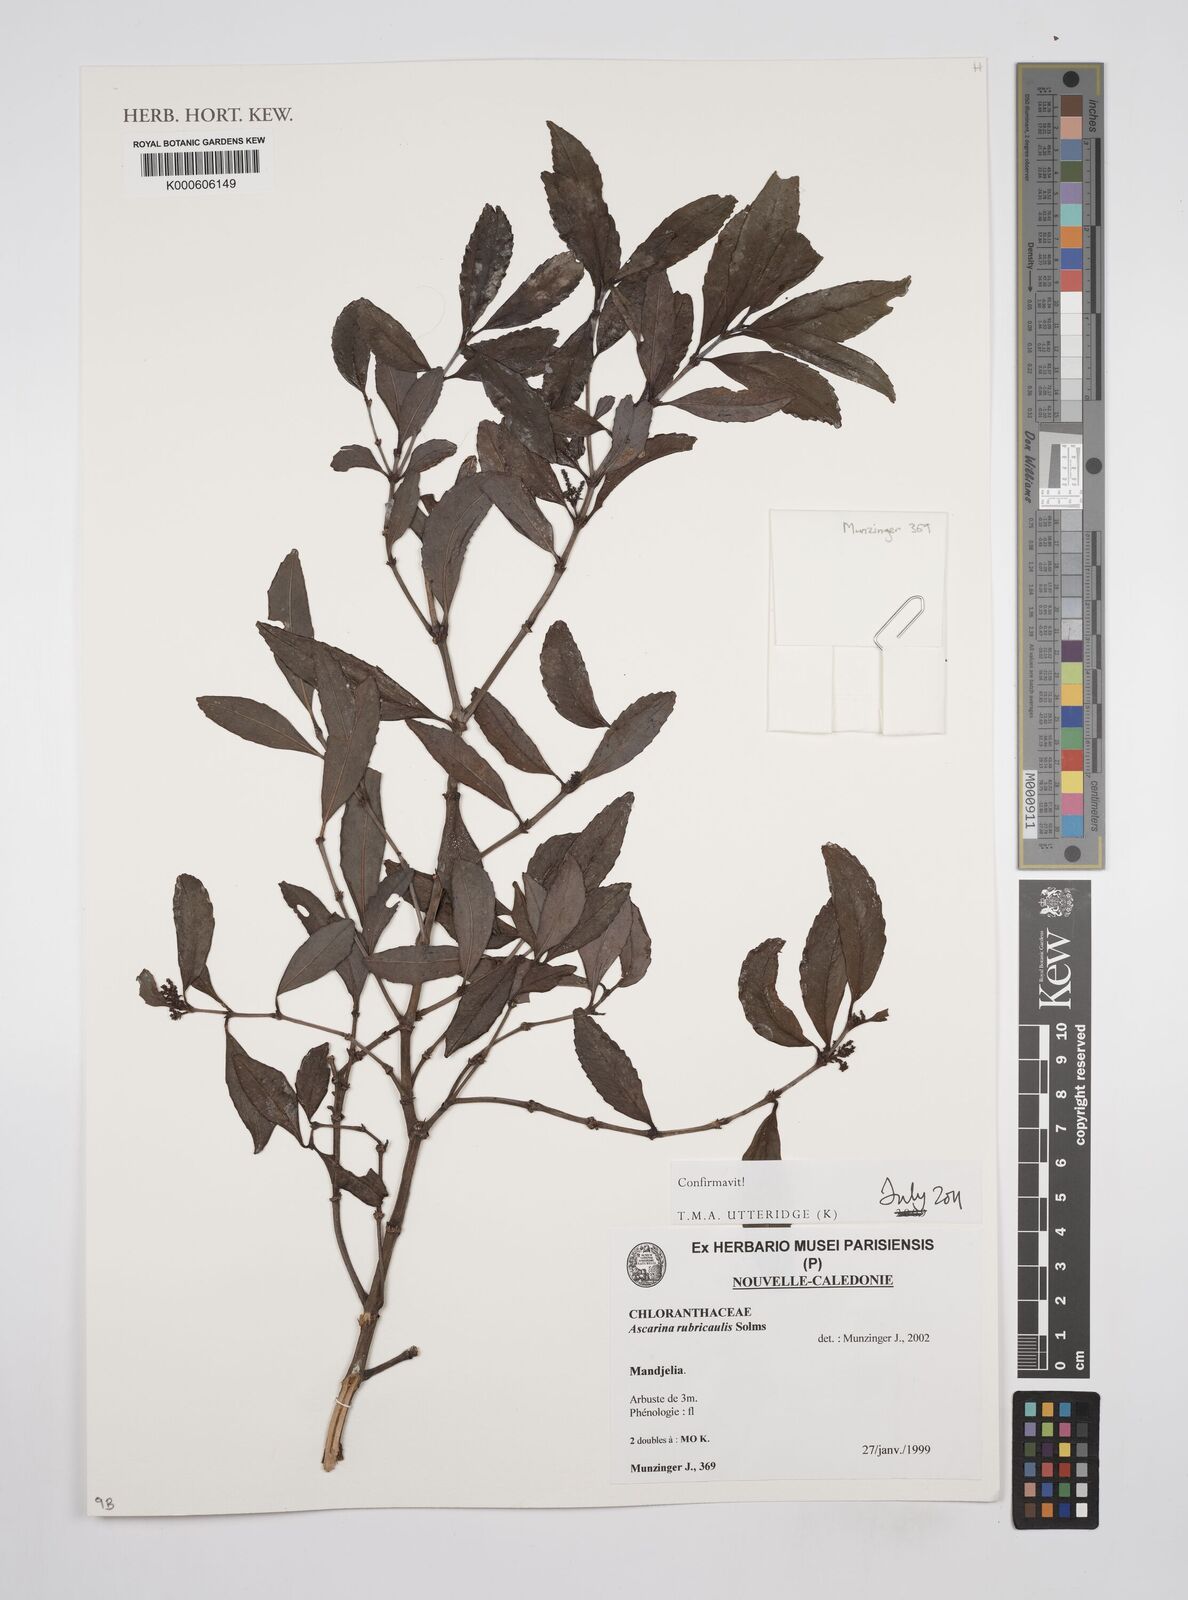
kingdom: Plantae
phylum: Tracheophyta
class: Magnoliopsida
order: Chloranthales
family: Chloranthaceae
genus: Ascarina
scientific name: Ascarina rubricaulis
